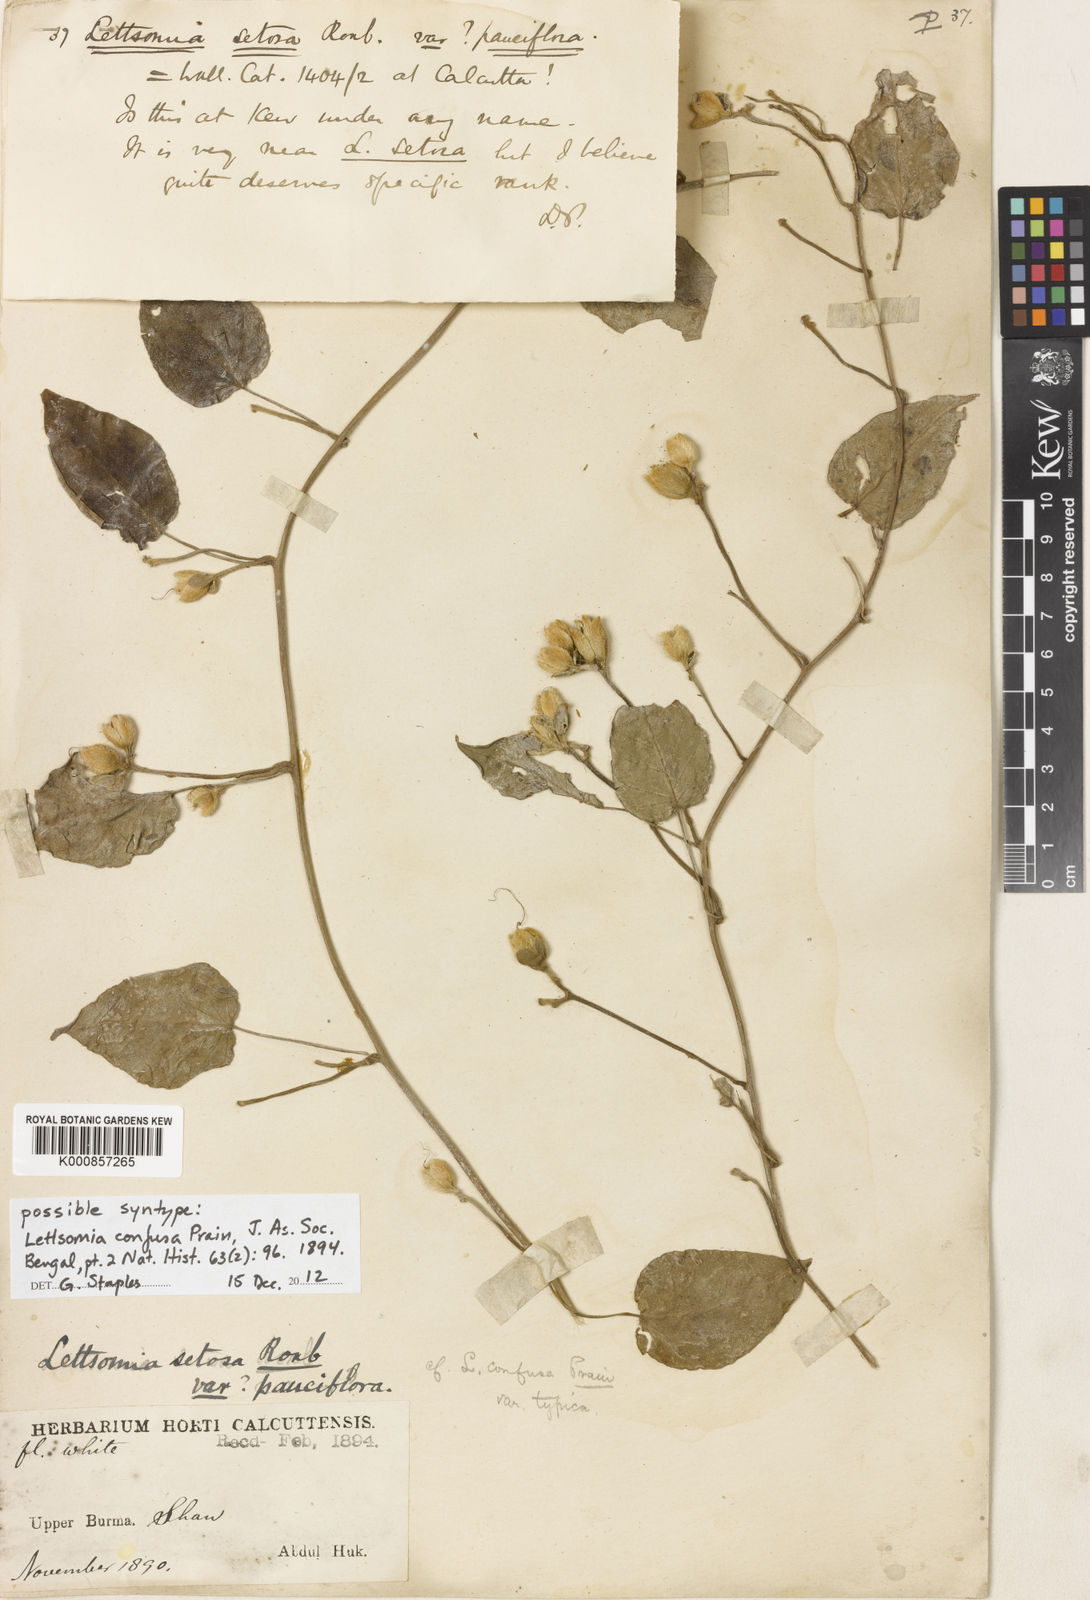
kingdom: Plantae
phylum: Tracheophyta
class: Magnoliopsida
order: Solanales
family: Convolvulaceae
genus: Argyreia
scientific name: Argyreia confusa
